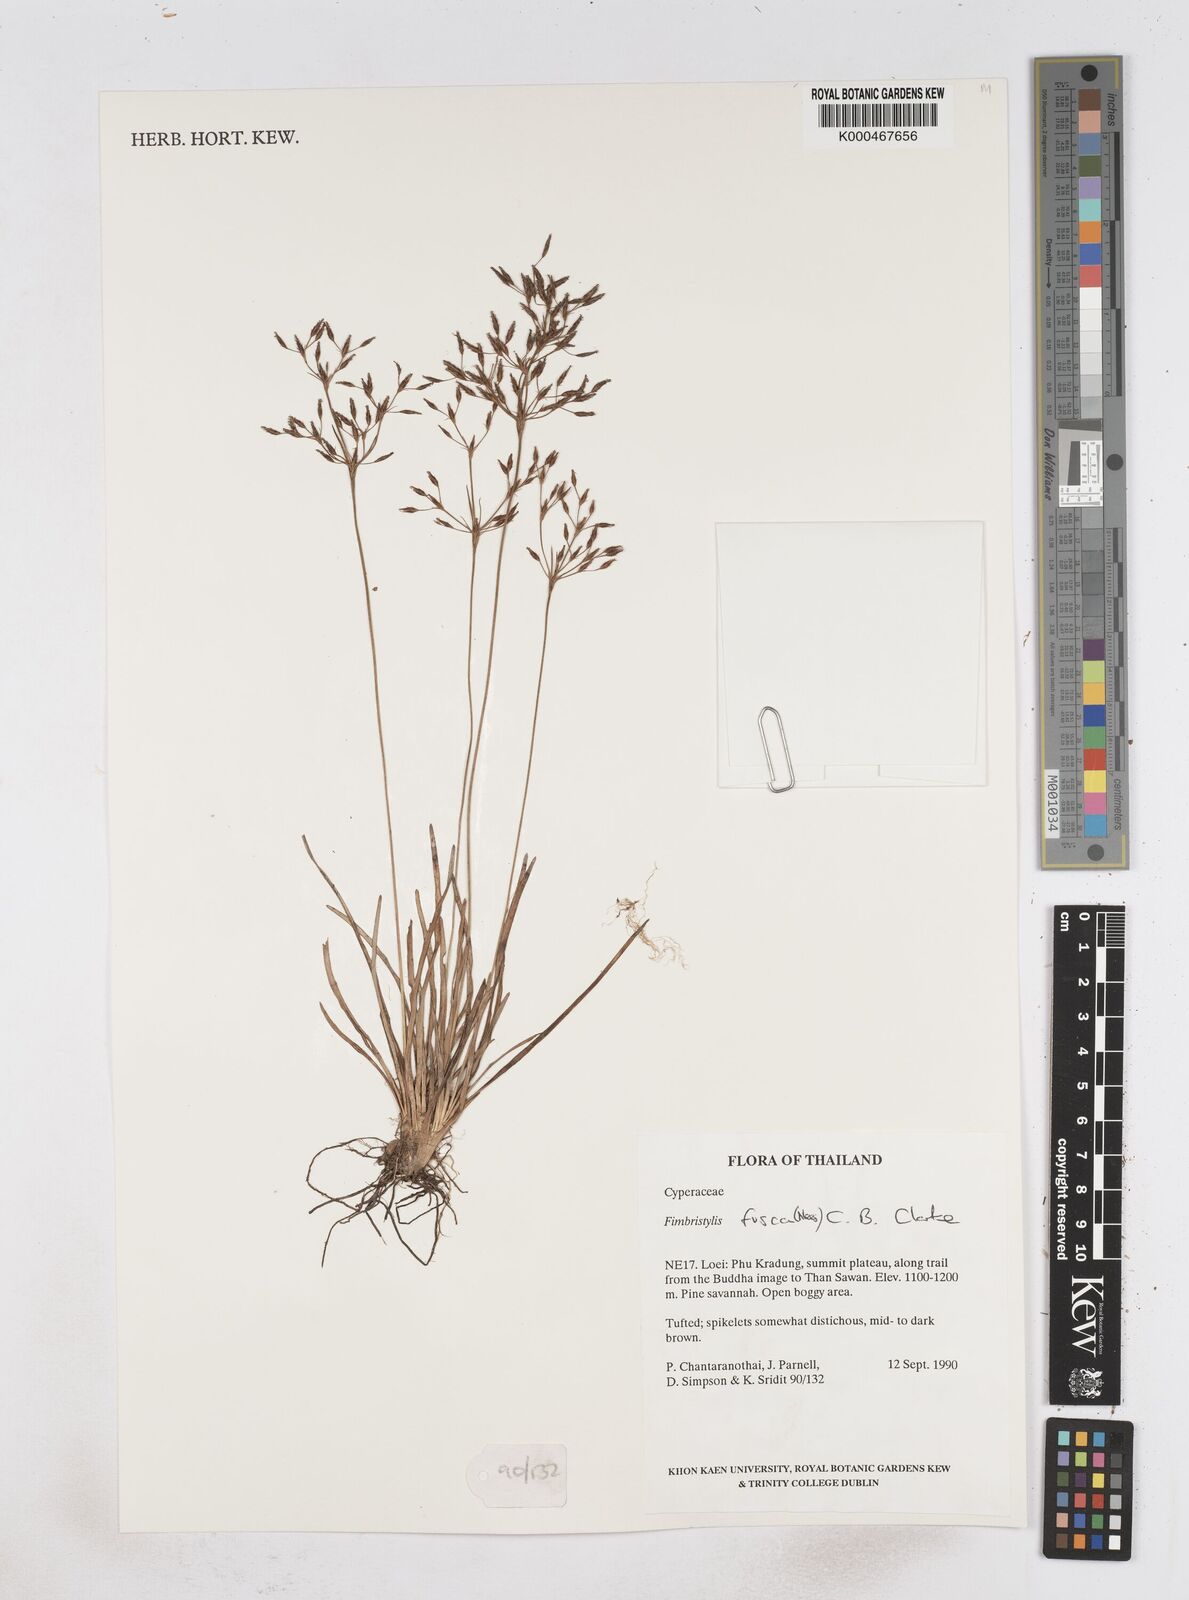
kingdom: Plantae
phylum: Tracheophyta
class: Liliopsida
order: Poales
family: Cyperaceae
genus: Fimbristylis
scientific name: Fimbristylis fusca
